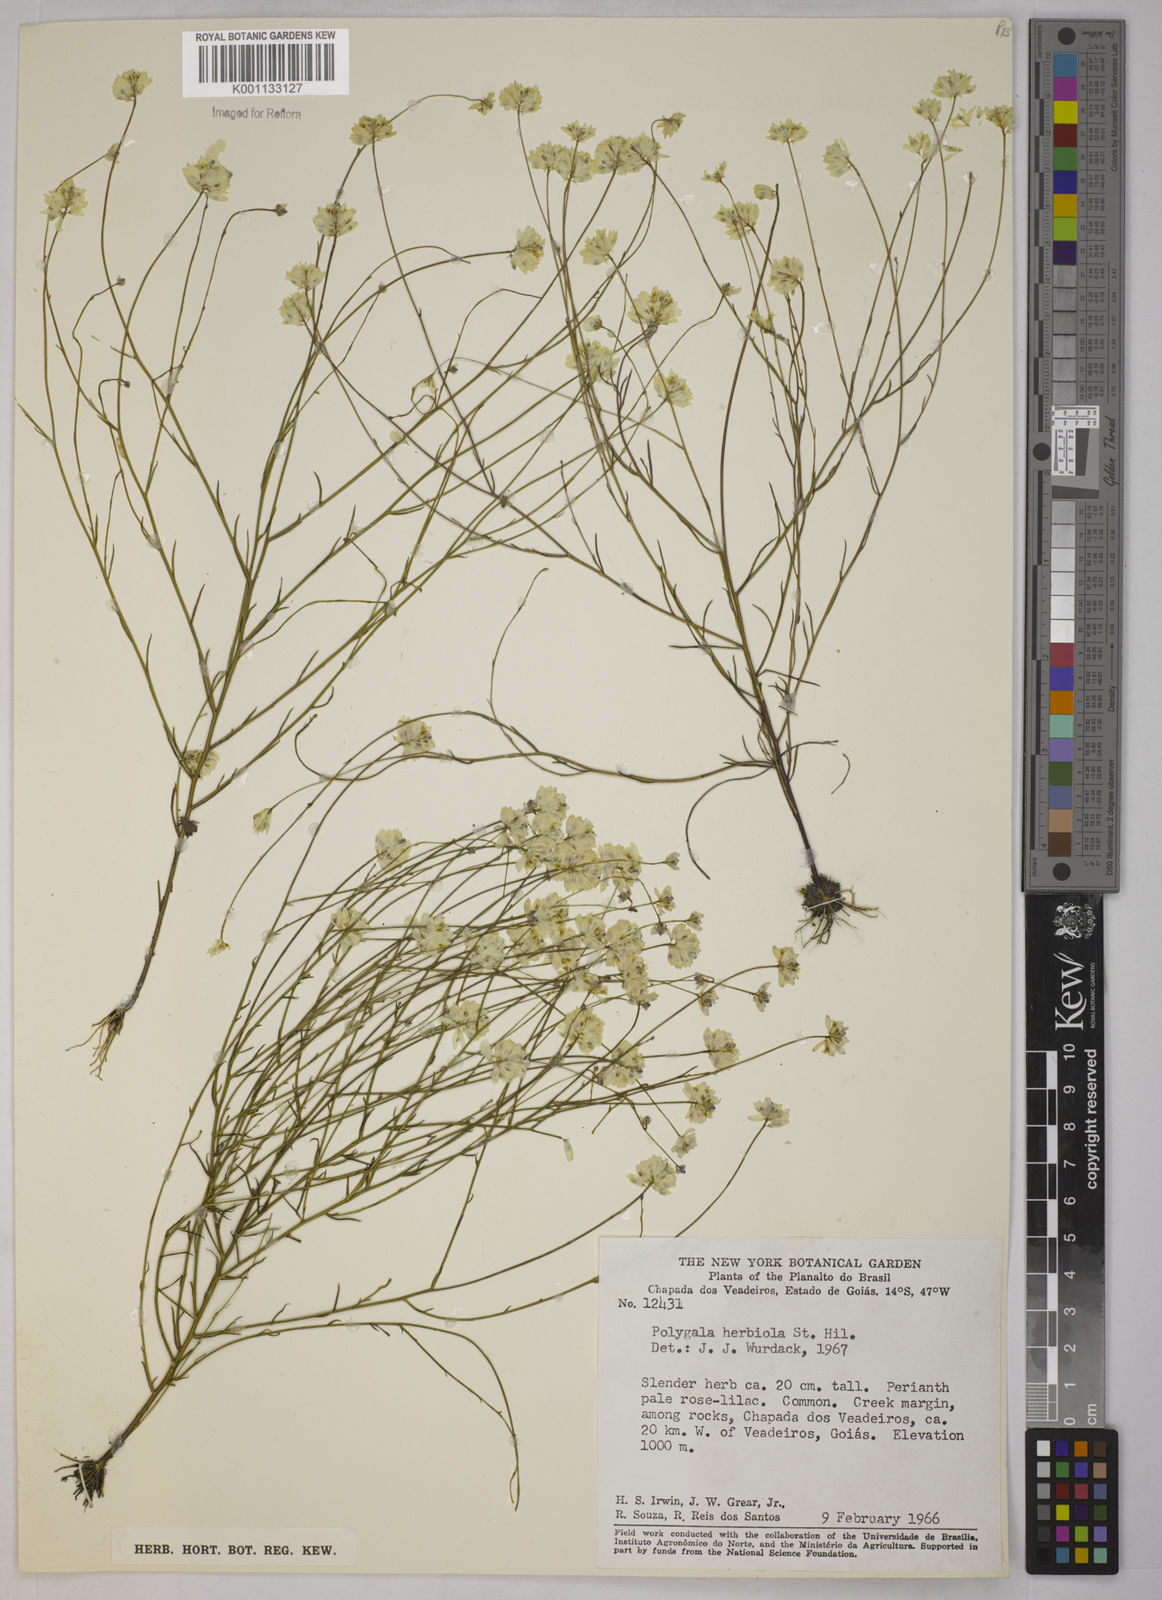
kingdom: Plantae
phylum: Tracheophyta
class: Magnoliopsida
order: Fabales
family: Polygalaceae
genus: Polygala
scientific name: Polygala herbiola
